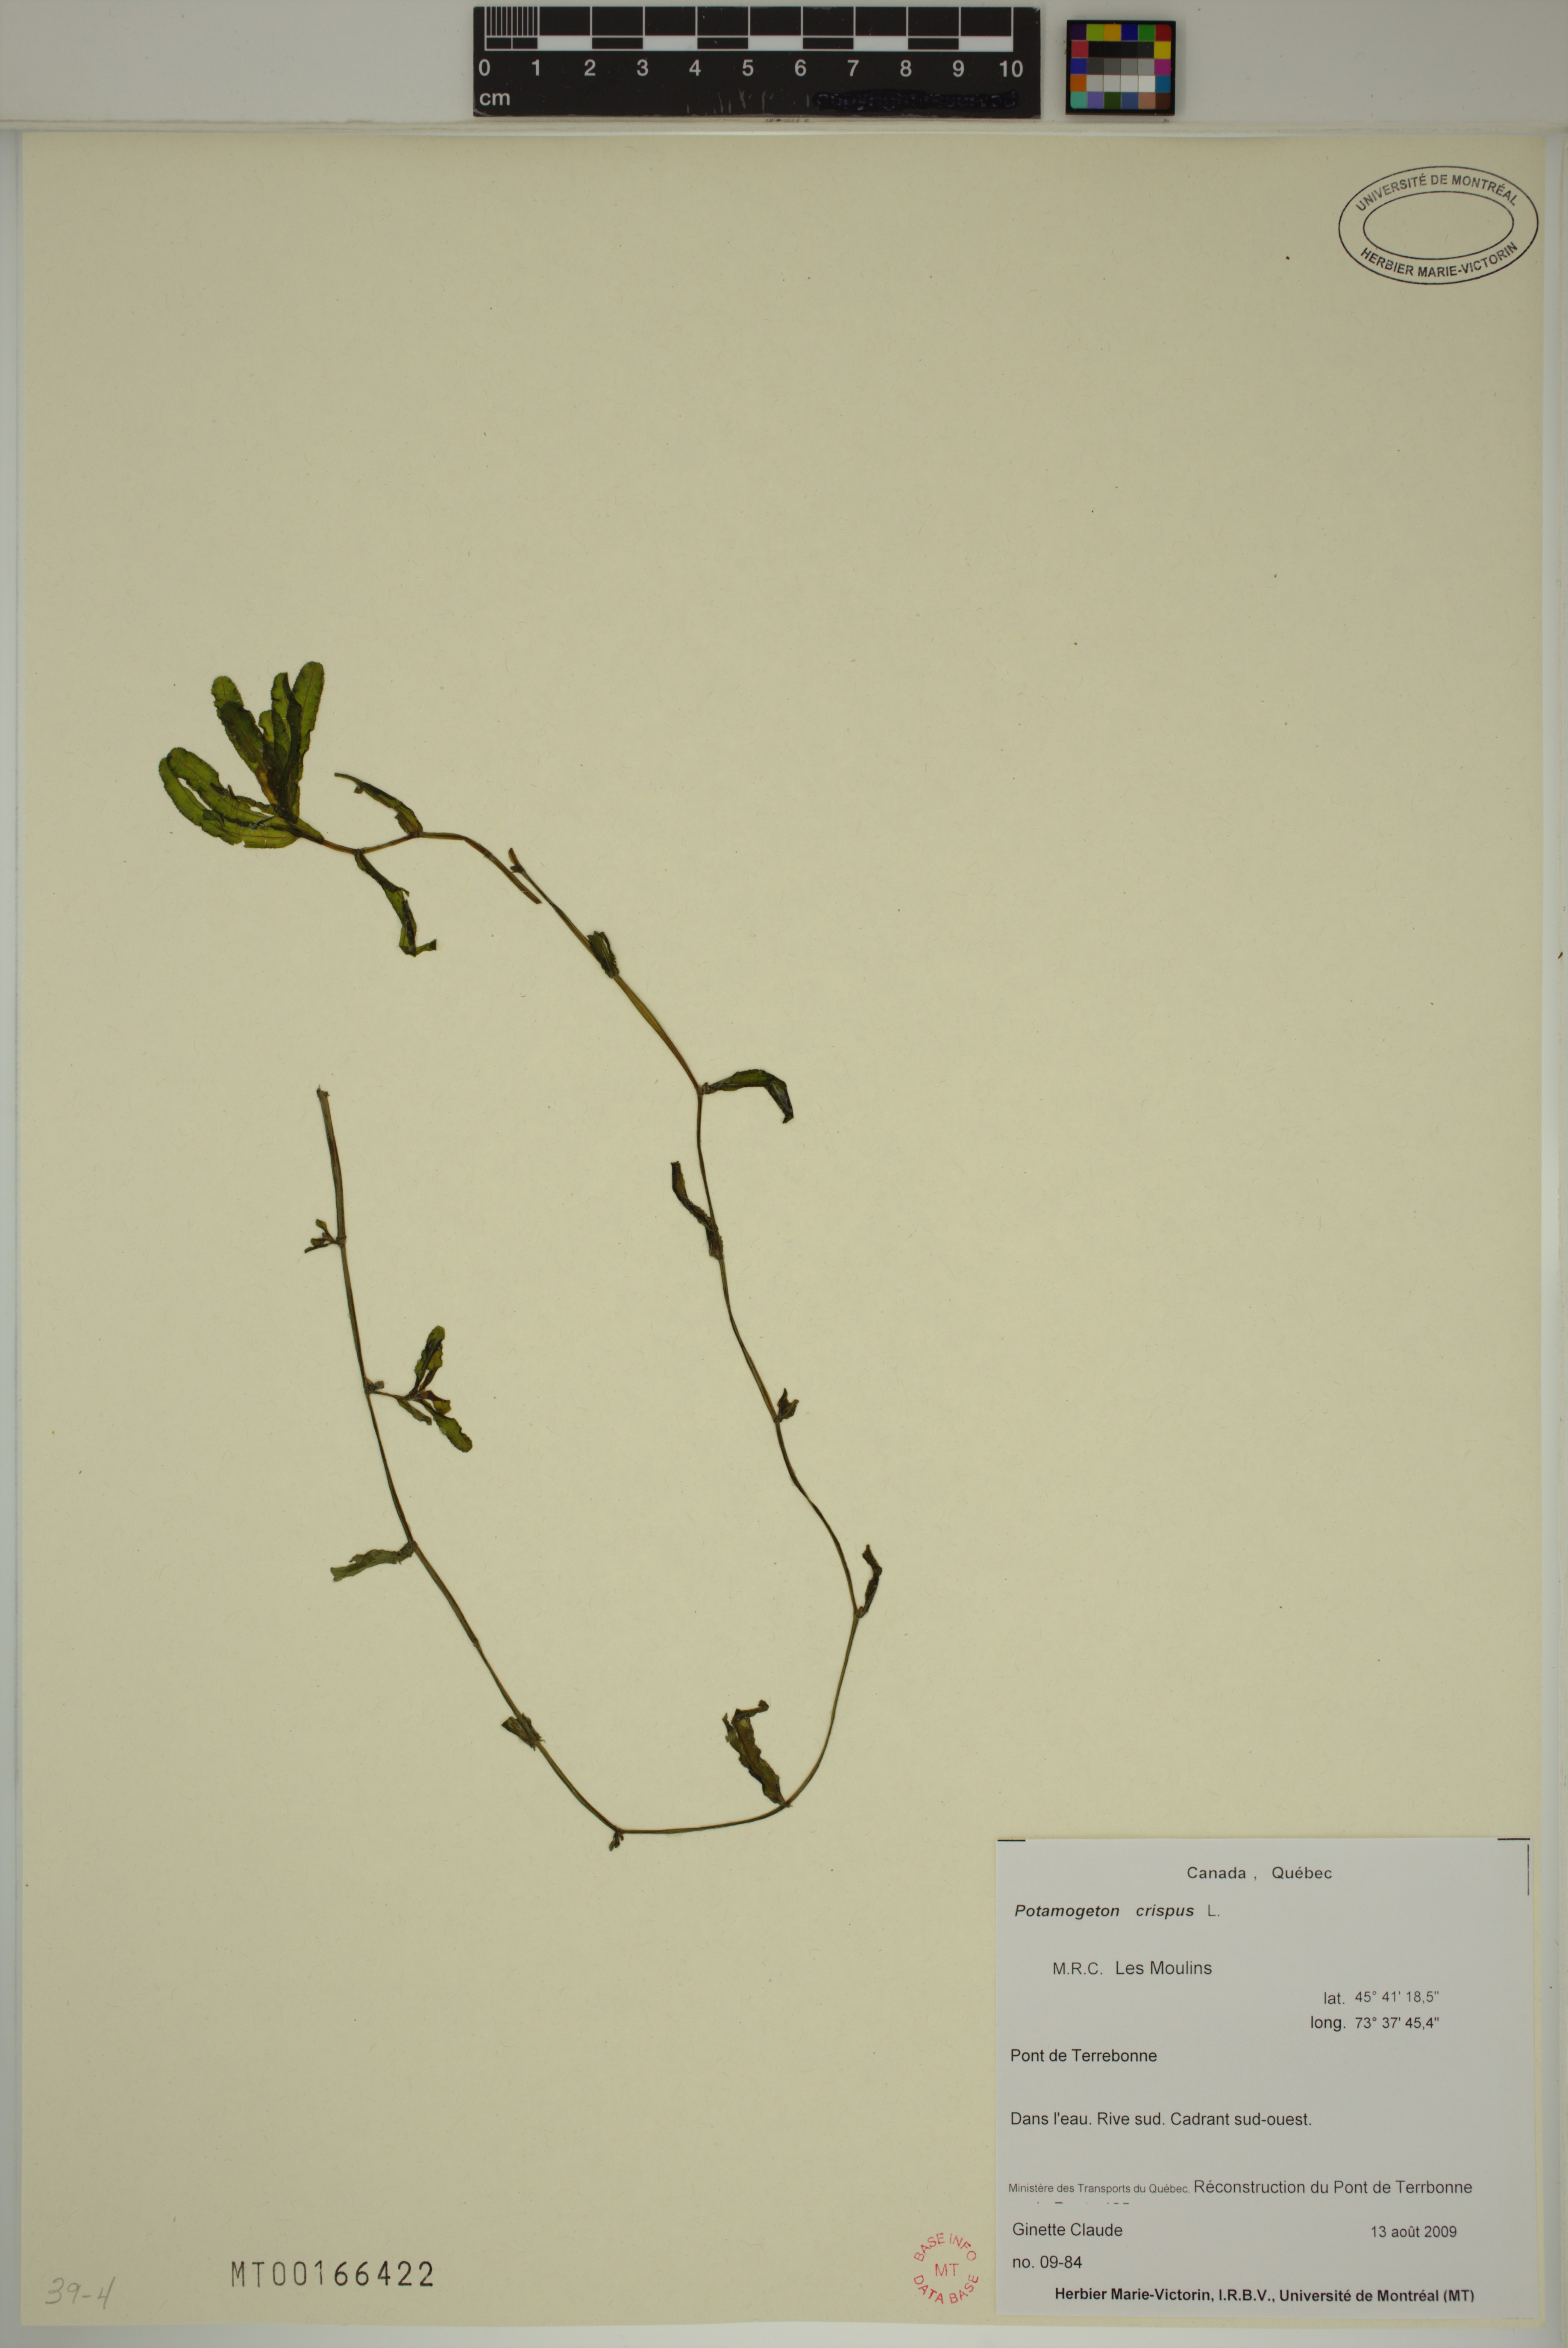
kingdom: Plantae
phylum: Tracheophyta
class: Liliopsida
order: Alismatales
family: Potamogetonaceae
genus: Potamogeton
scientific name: Potamogeton crispus
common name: Curled pondweed
